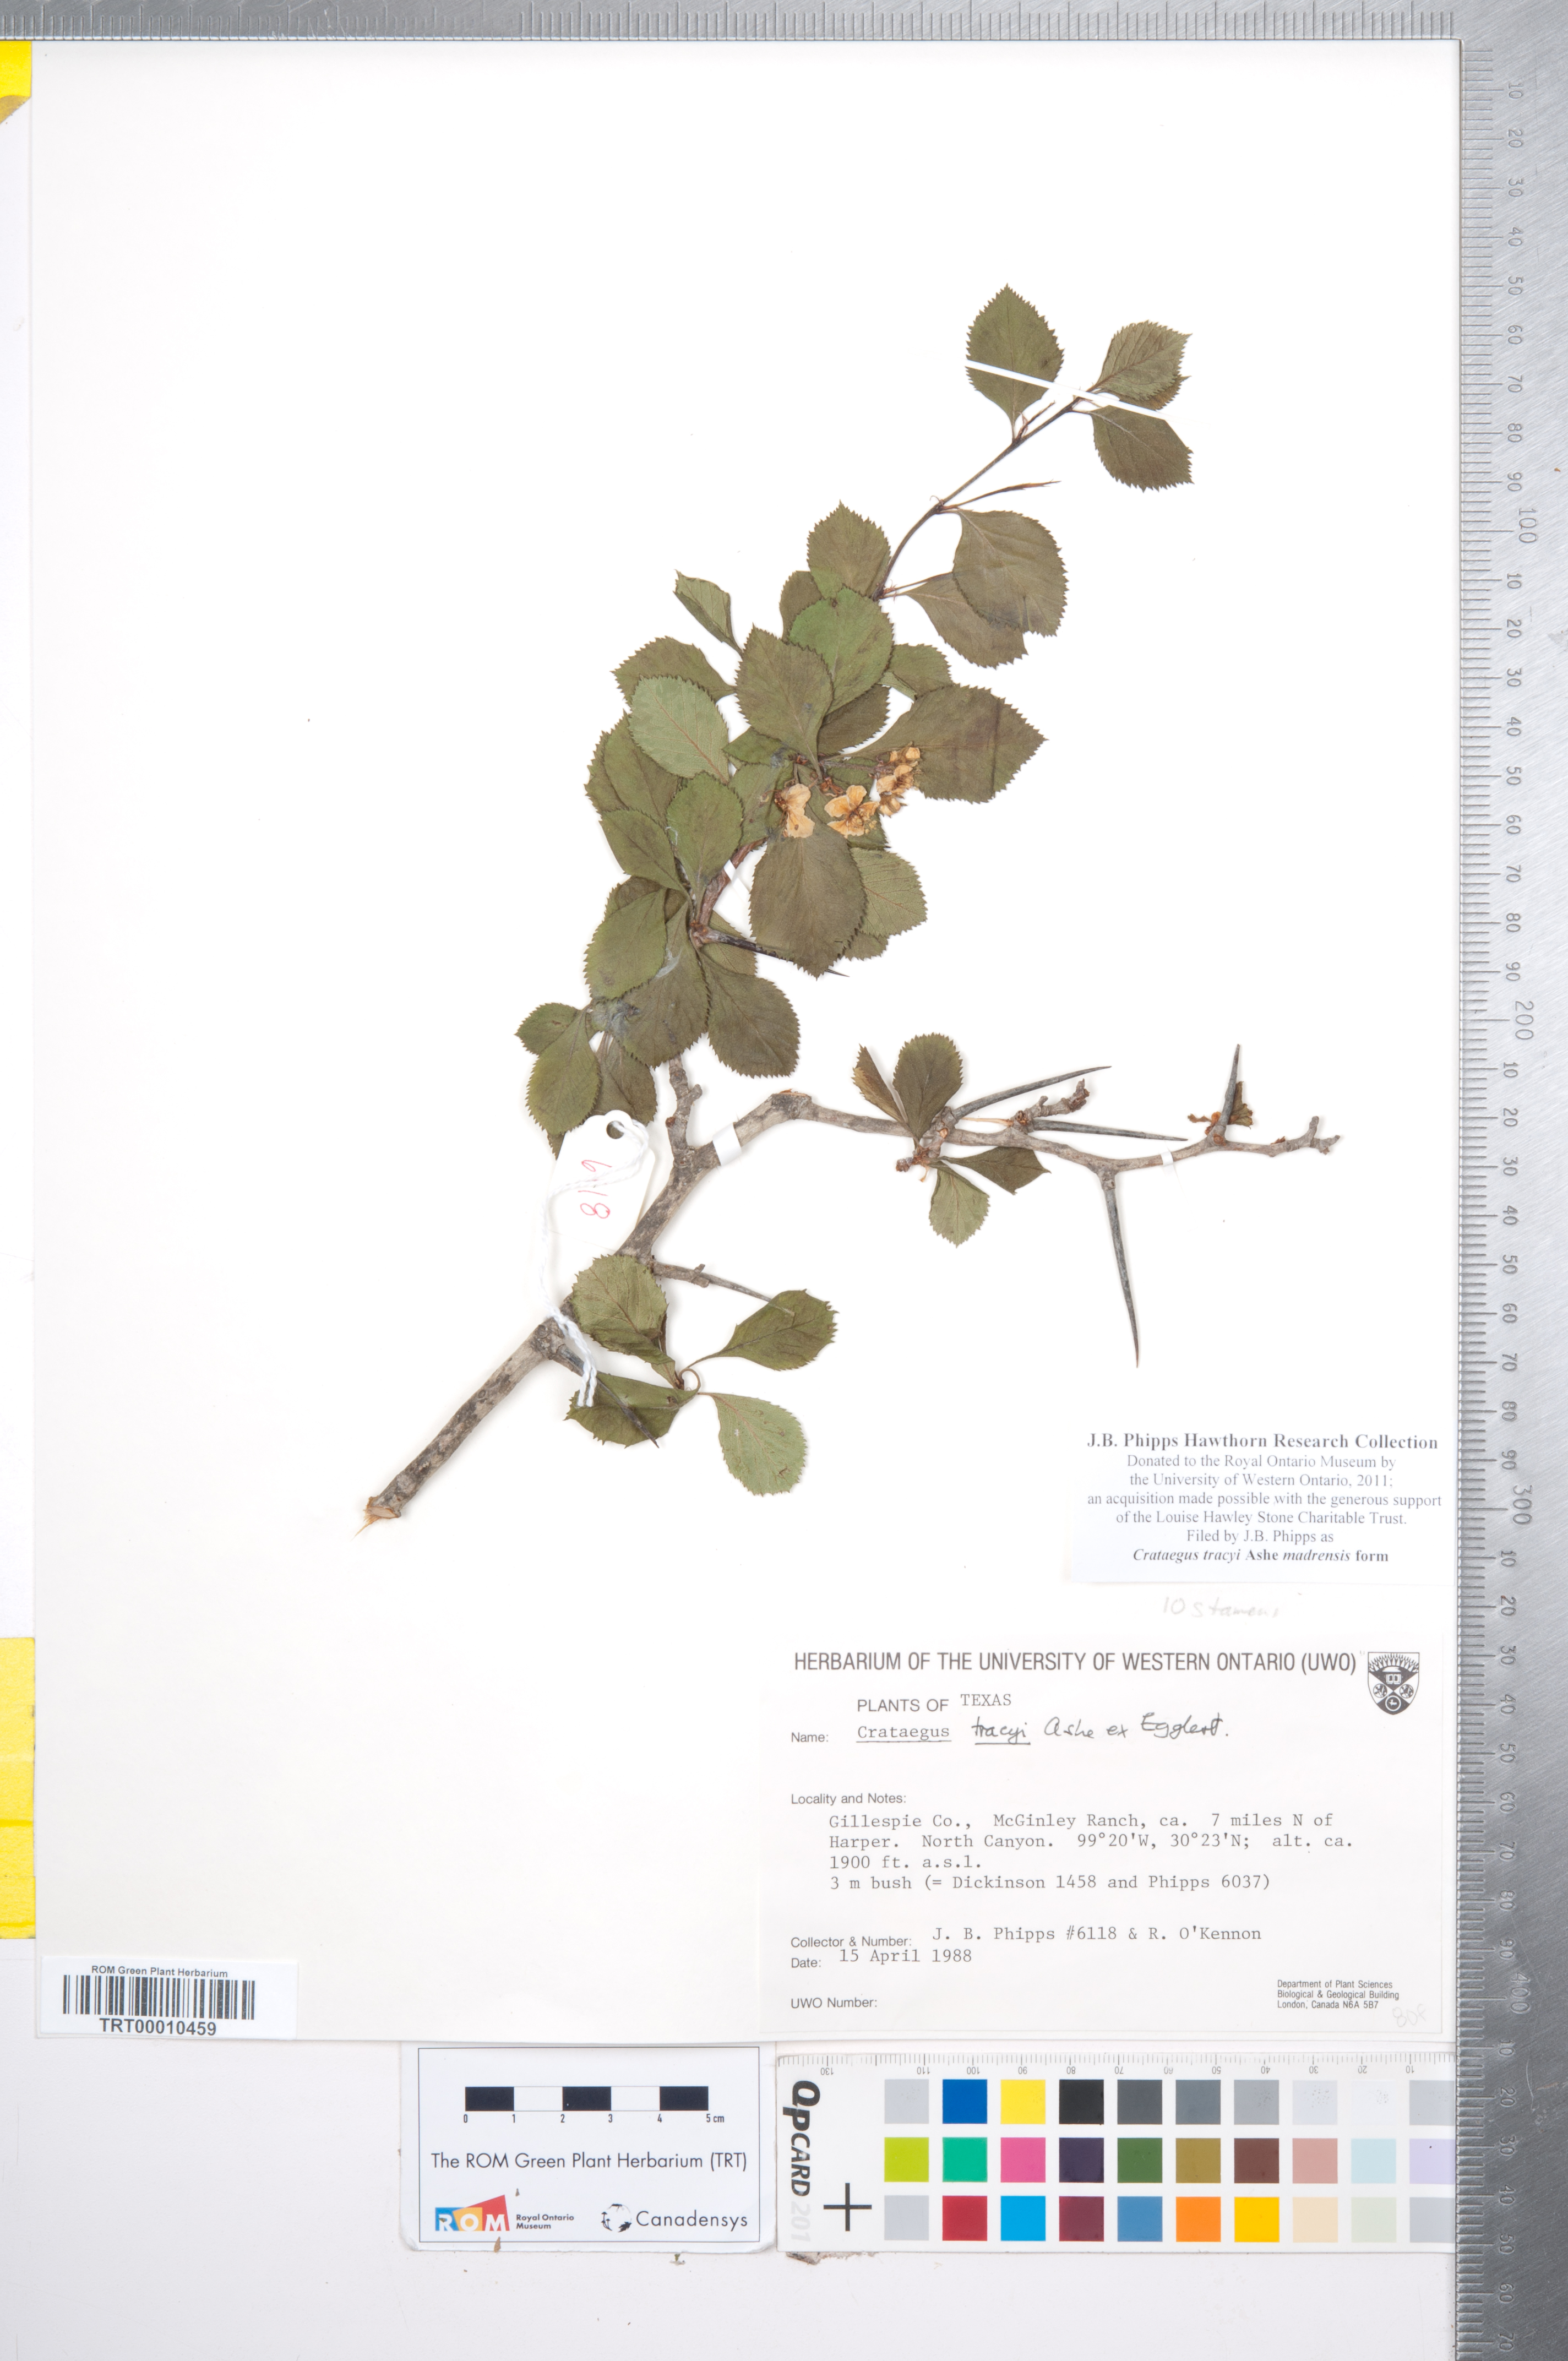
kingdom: Plantae
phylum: Tracheophyta
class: Magnoliopsida
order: Rosales
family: Rosaceae
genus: Crataegus
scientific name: Crataegus tracyi
